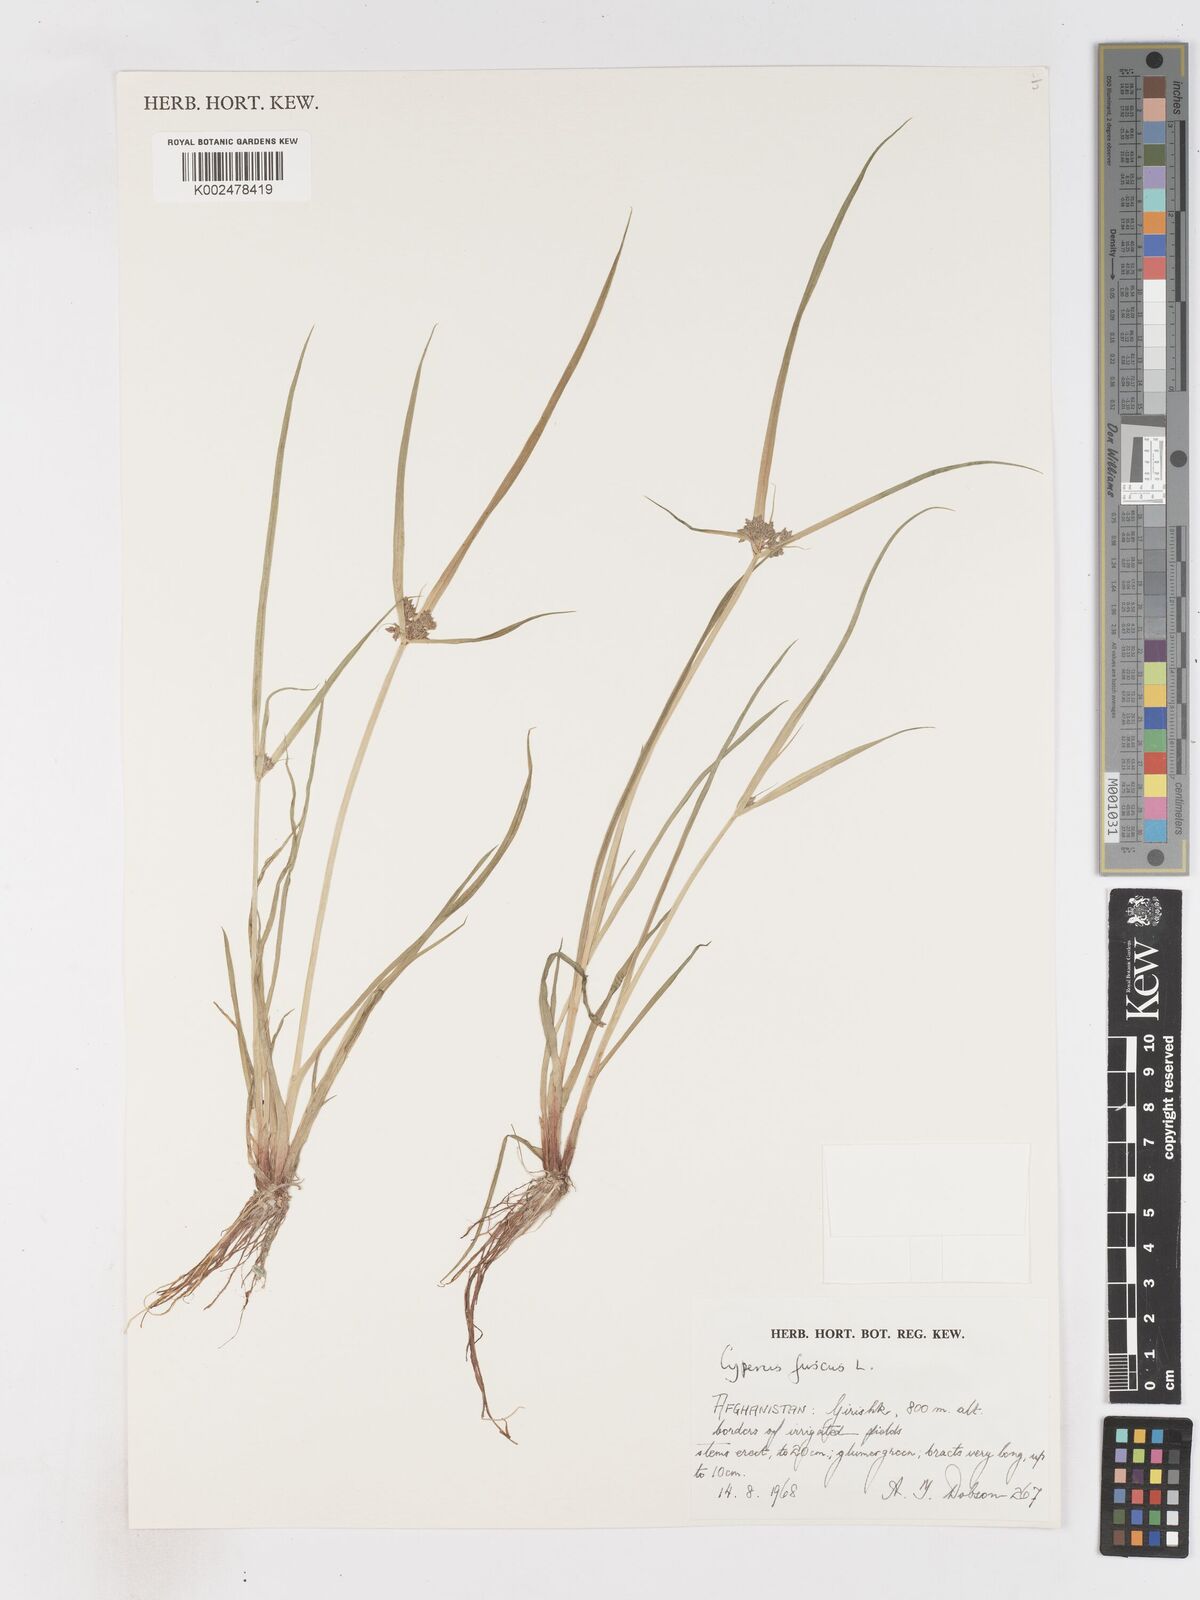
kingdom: Plantae
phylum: Tracheophyta
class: Liliopsida
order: Poales
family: Cyperaceae
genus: Cyperus
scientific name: Cyperus fuscus
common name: Brown galingale
